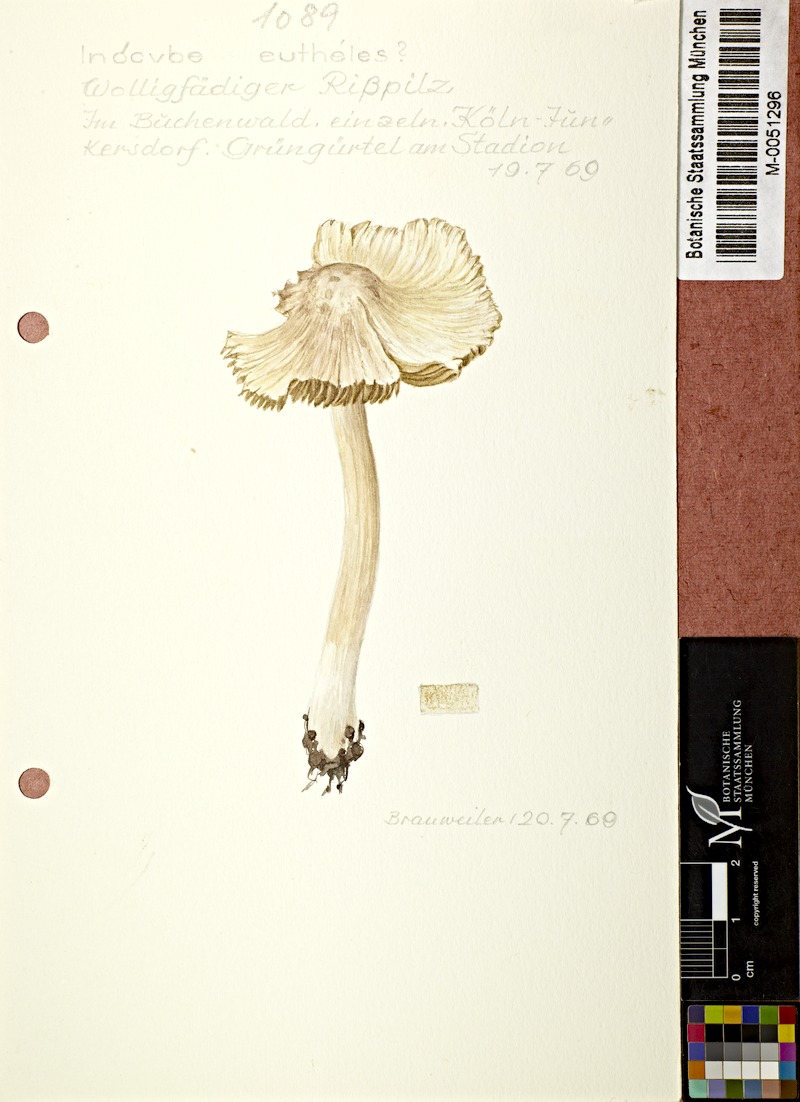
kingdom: Fungi
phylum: Basidiomycota
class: Agaricomycetes
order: Agaricales
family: Inocybaceae
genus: Inocybe
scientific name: Inocybe sindonia
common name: Beige fibrecap
